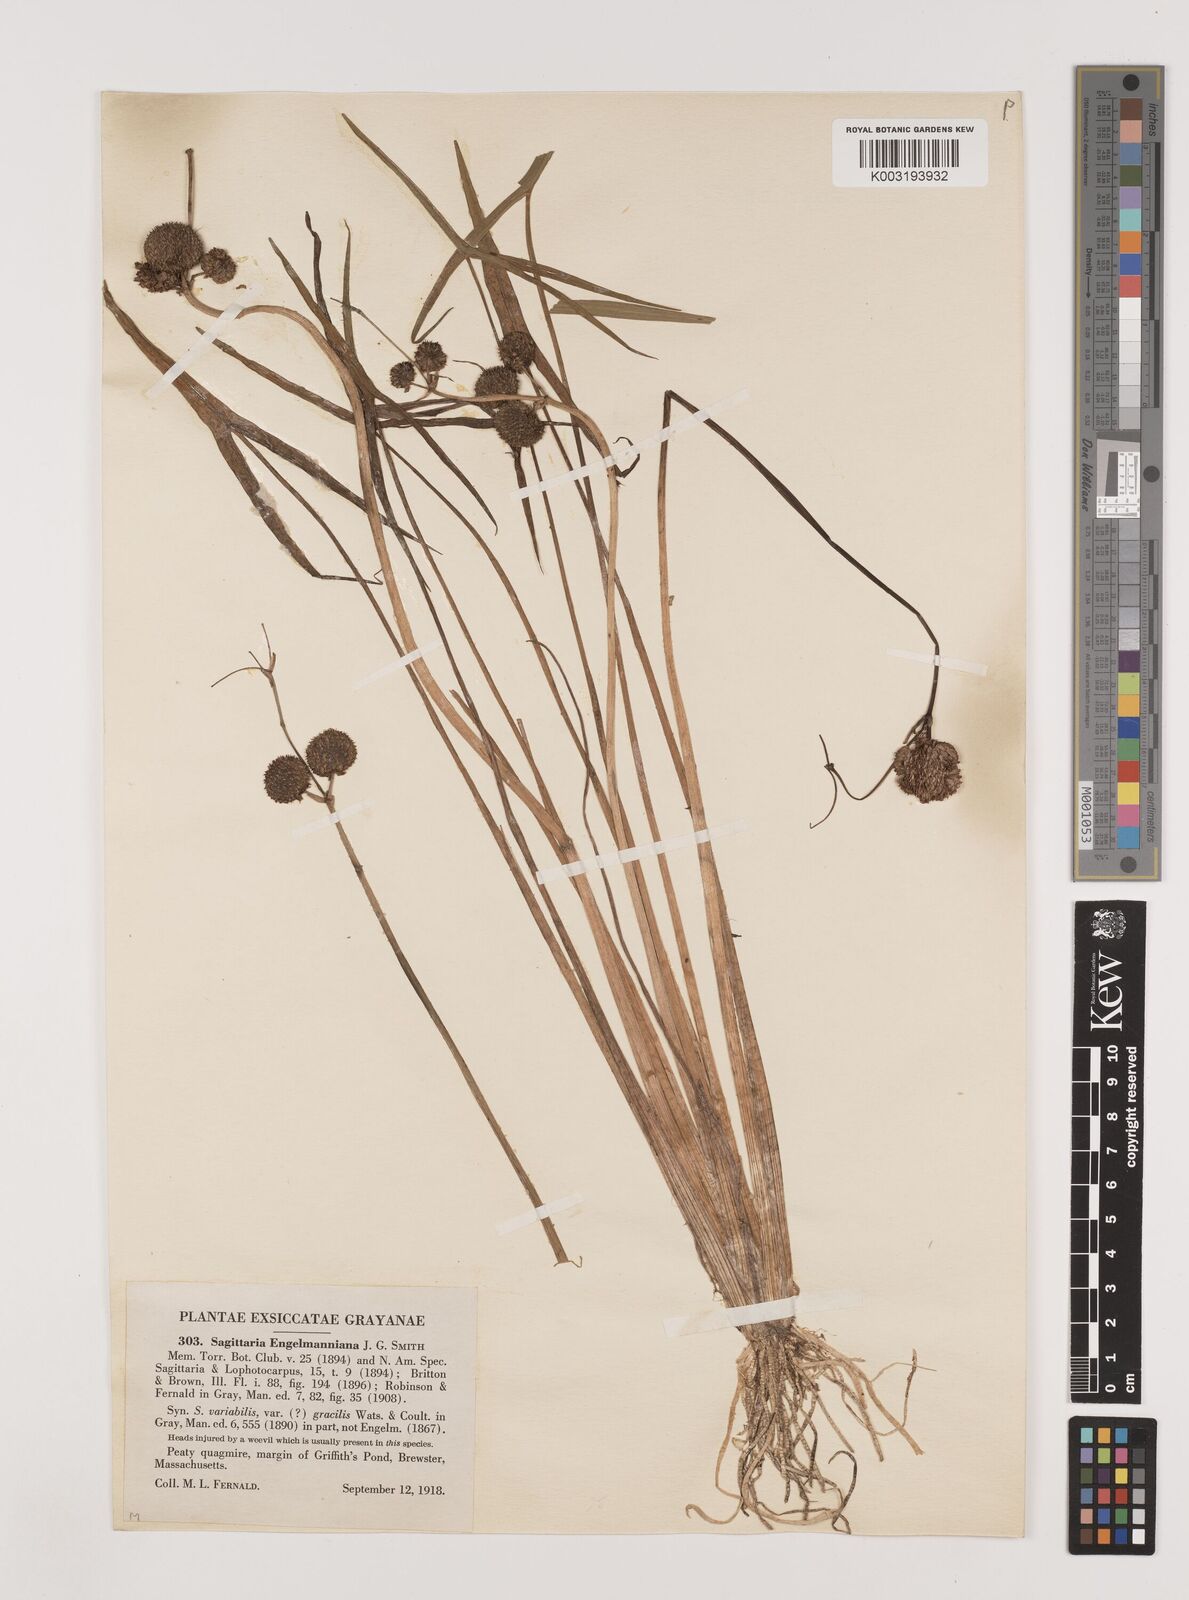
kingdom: Plantae
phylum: Tracheophyta
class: Liliopsida
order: Alismatales
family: Alismataceae
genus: Sagittaria
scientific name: Sagittaria engelmanniana
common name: Acid-water arrowhead
